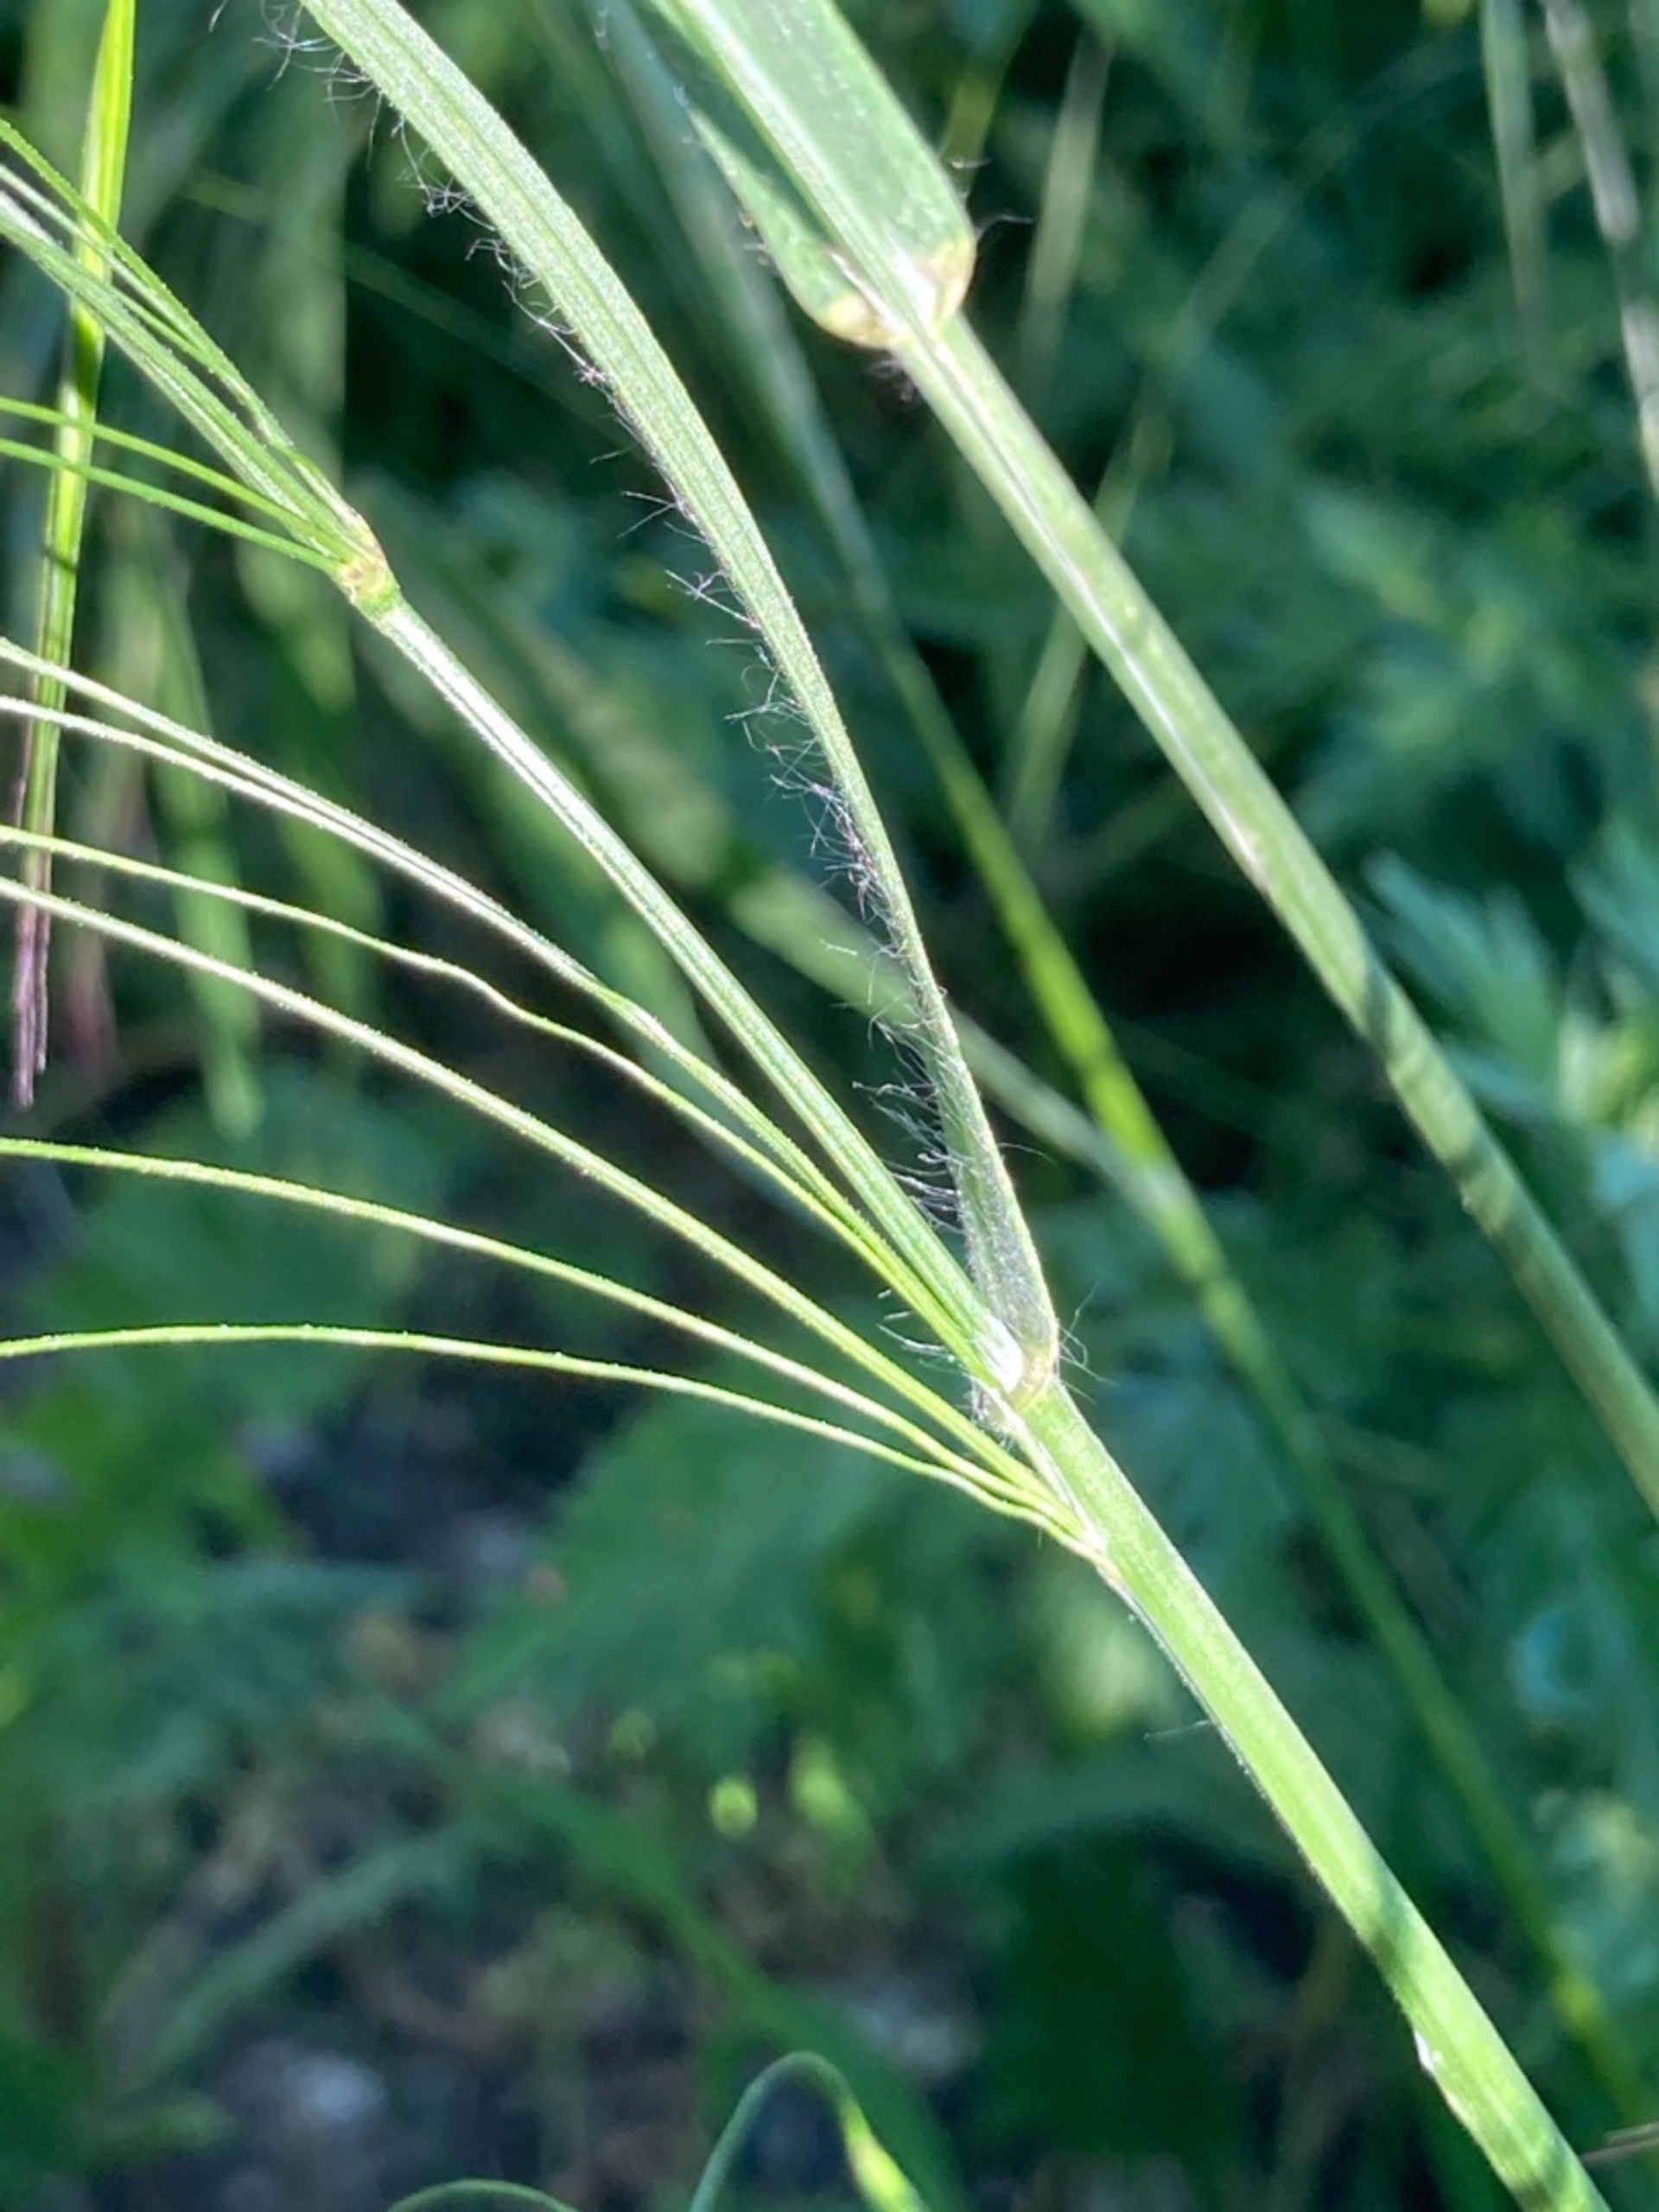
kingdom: Plantae
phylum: Tracheophyta
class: Liliopsida
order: Poales
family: Poaceae
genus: Bromus
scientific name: Bromus
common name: Hejre (Bromus-slægten)
